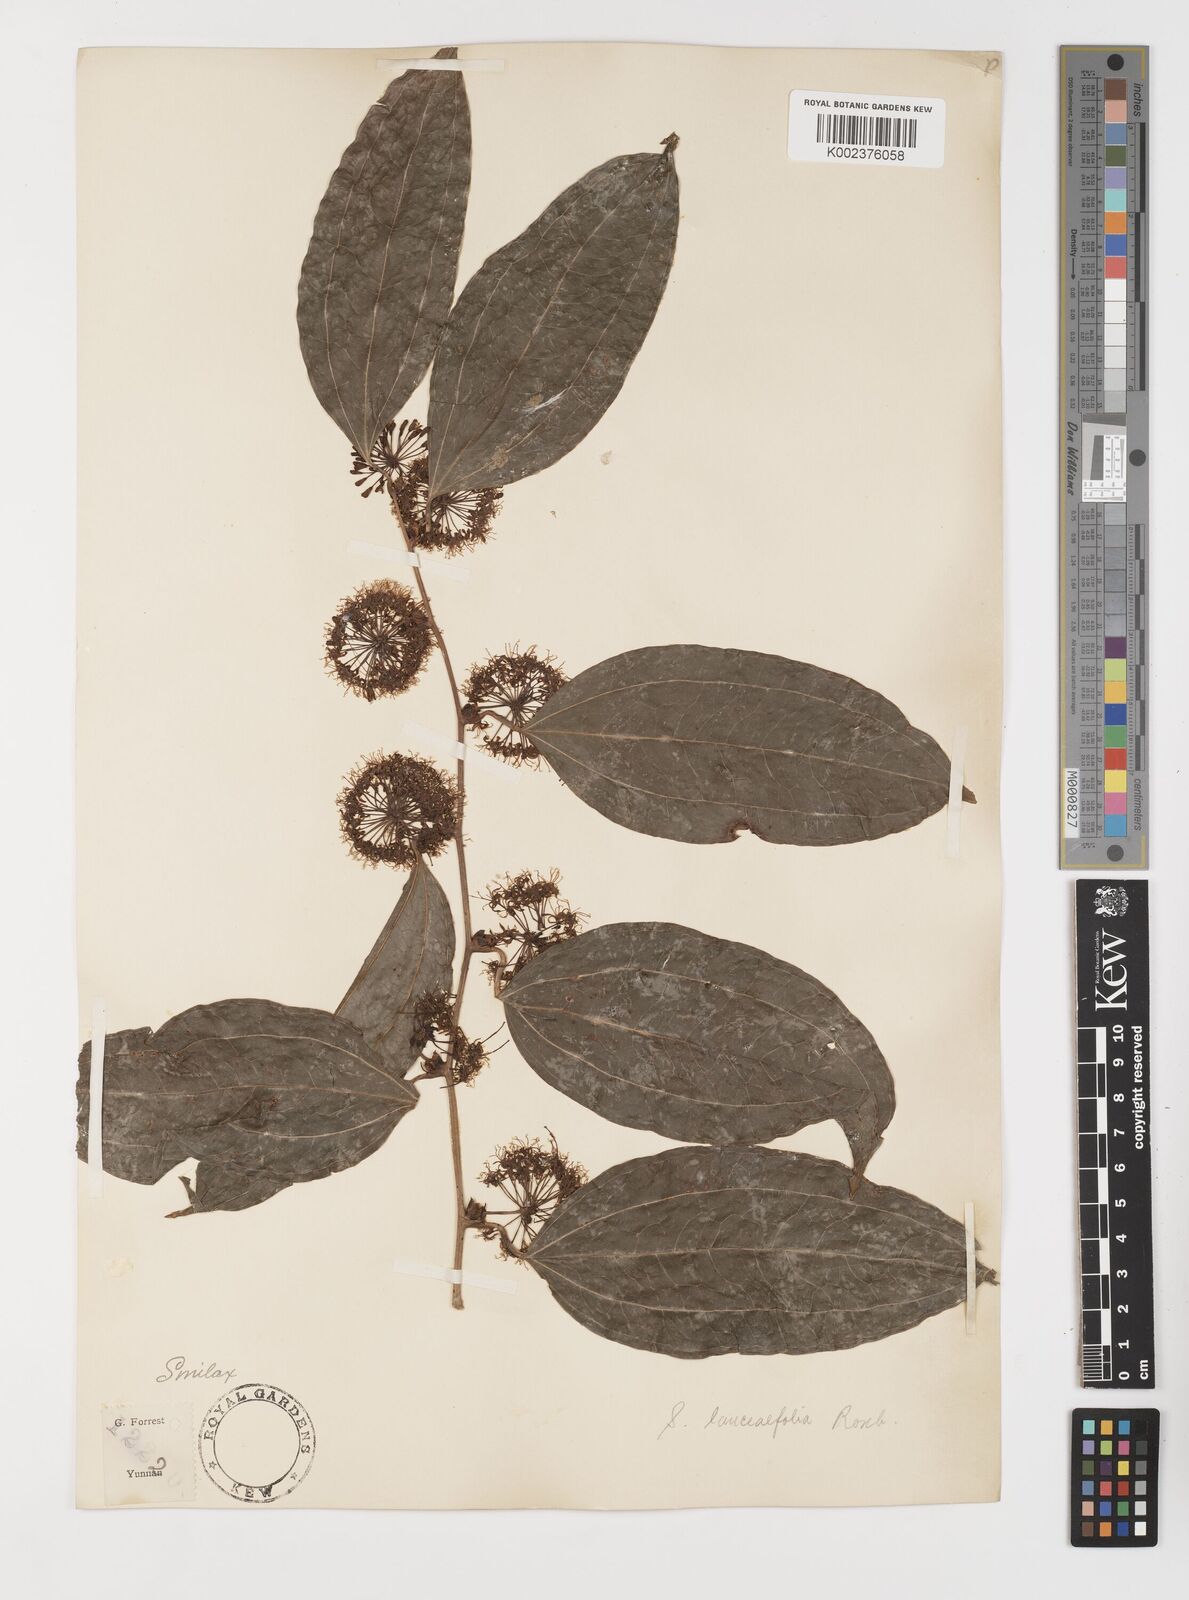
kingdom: Plantae
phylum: Tracheophyta
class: Liliopsida
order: Liliales
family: Smilacaceae
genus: Smilax
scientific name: Smilax lanceifolia
